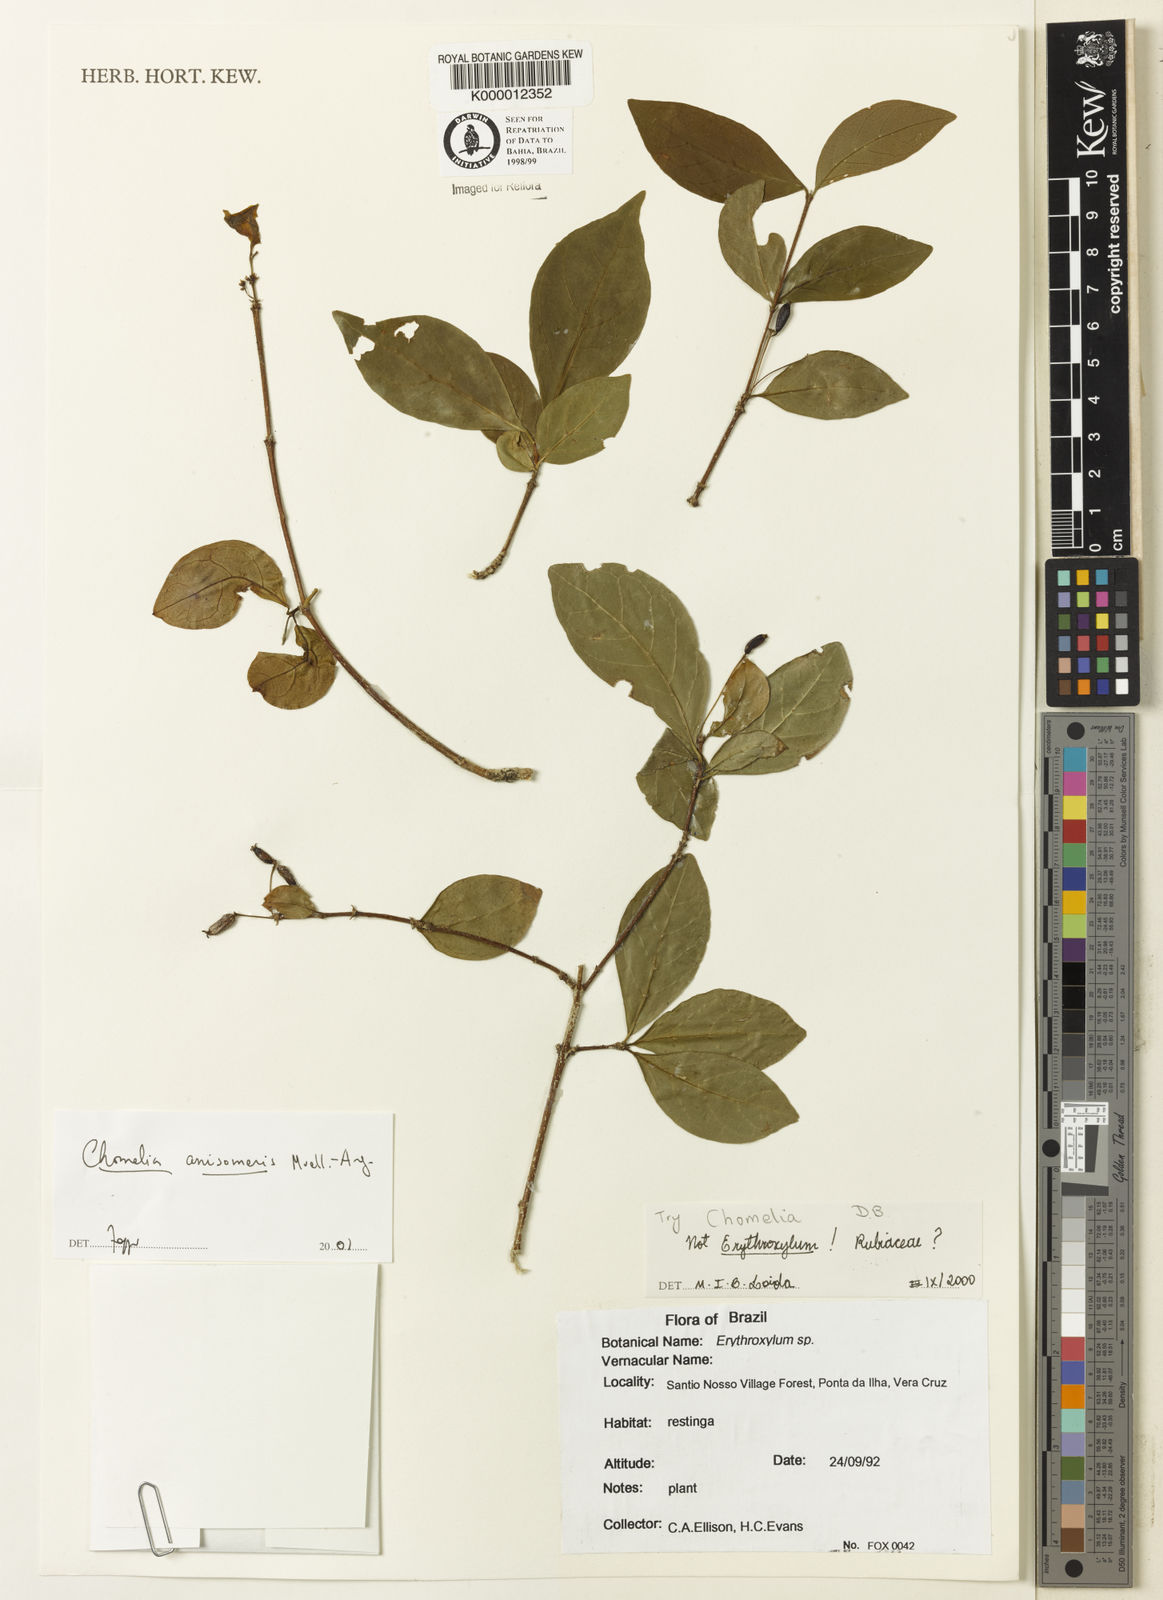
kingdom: Plantae
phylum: Tracheophyta
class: Magnoliopsida
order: Gentianales
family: Rubiaceae
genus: Chomelia
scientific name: Chomelia anisomeris
